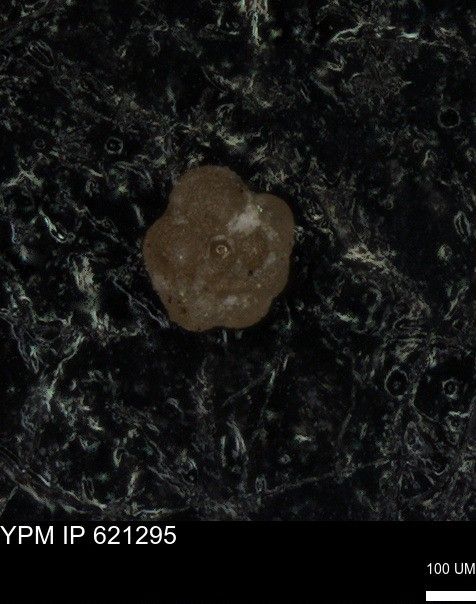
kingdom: Chromista
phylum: Foraminifera
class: Globothalamea
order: Rotaliida
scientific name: Rotaliida
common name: forams
